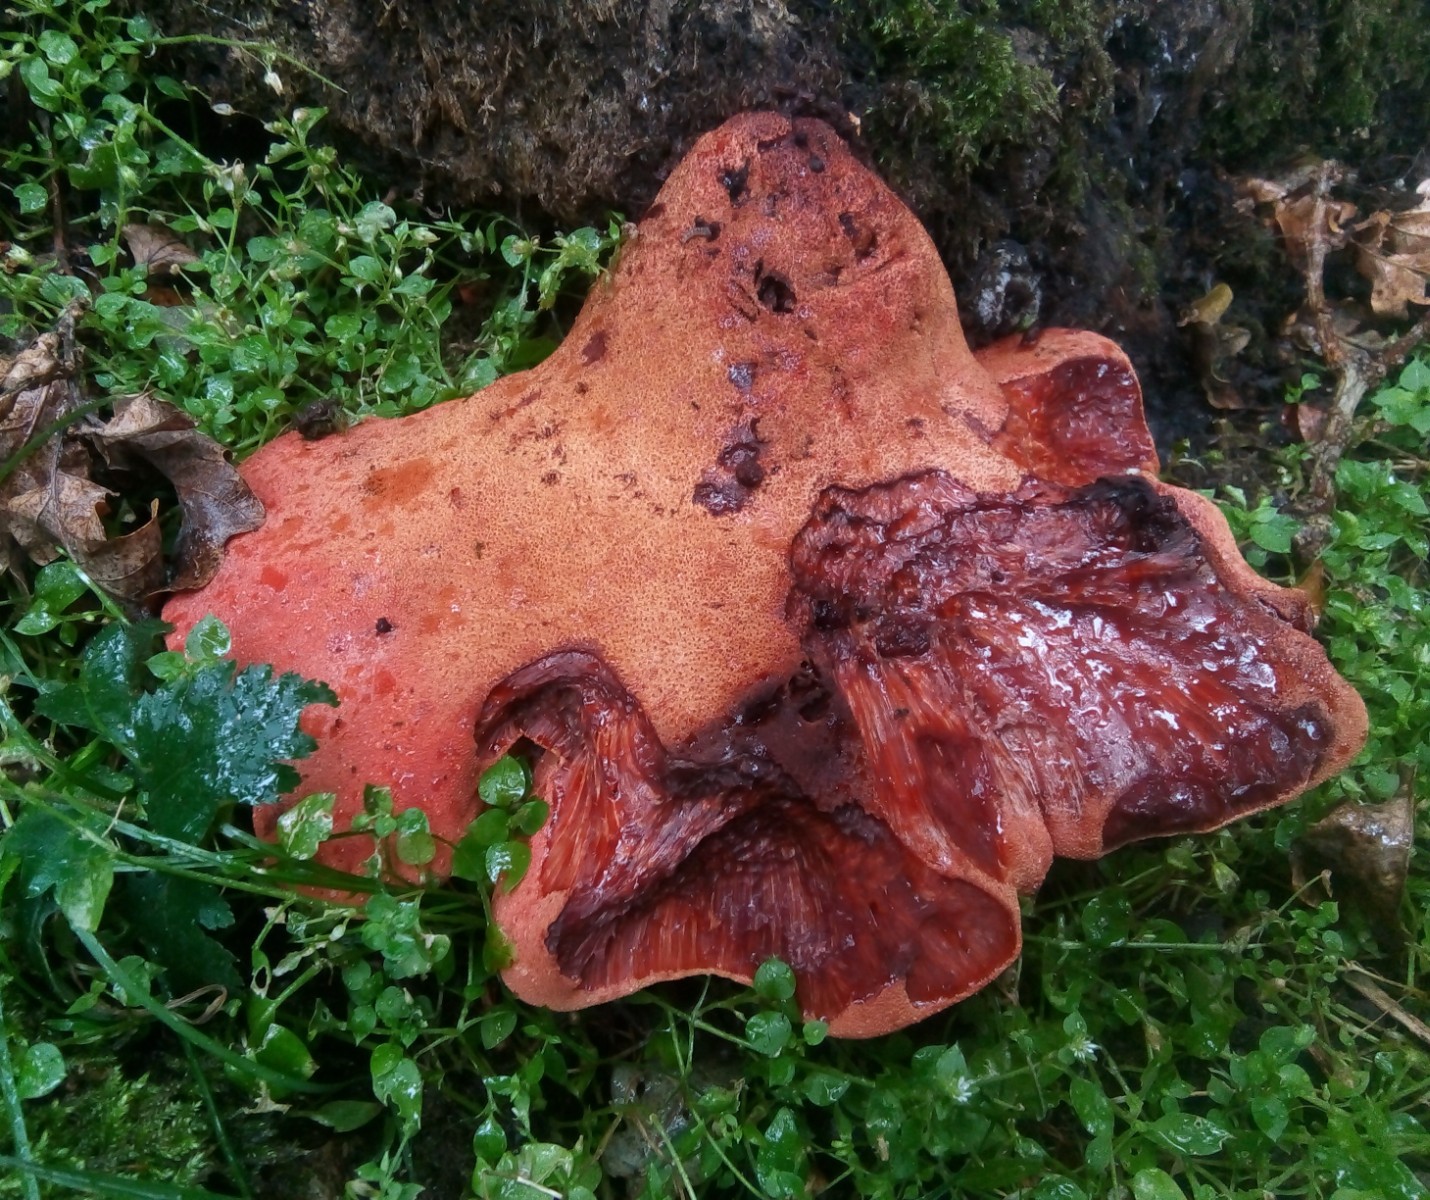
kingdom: Fungi
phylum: Basidiomycota
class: Agaricomycetes
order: Agaricales
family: Fistulinaceae
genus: Fistulina
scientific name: Fistulina hepatica
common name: oksetunge
